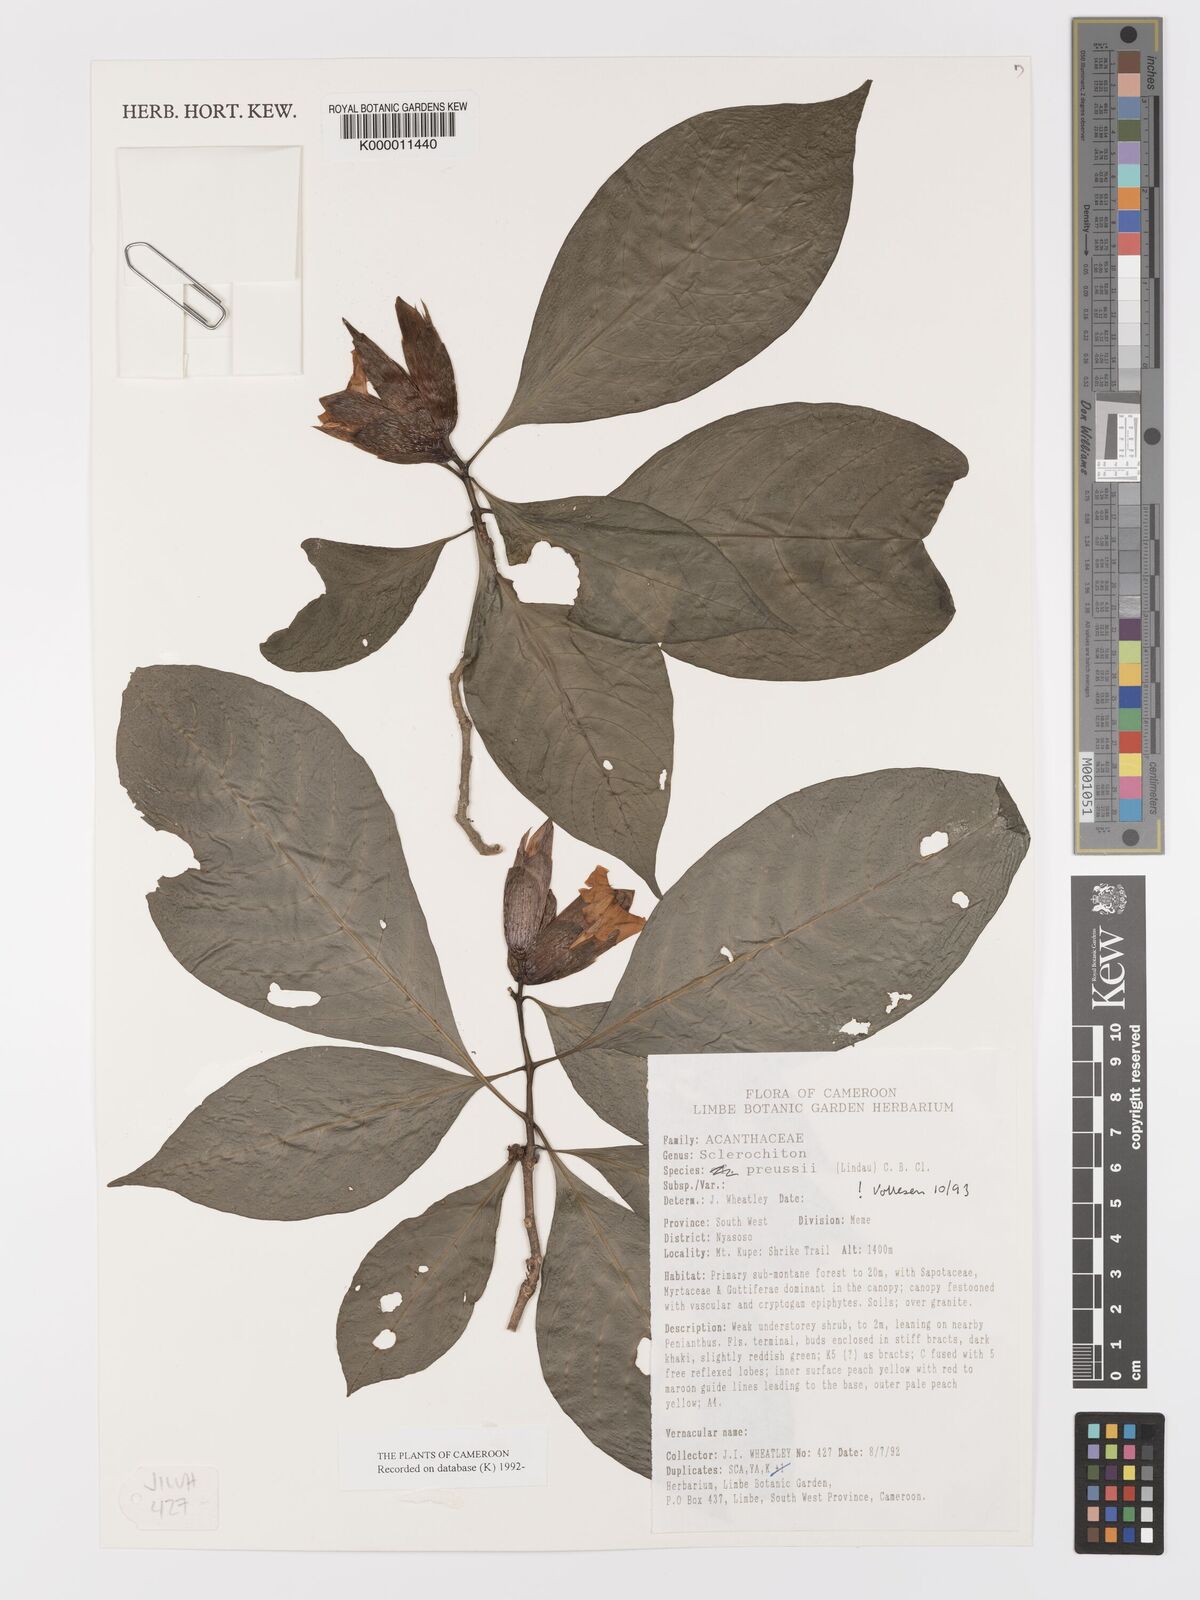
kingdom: Plantae
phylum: Tracheophyta
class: Magnoliopsida
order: Lamiales
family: Acanthaceae
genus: Sclerochiton
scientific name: Sclerochiton preussii
